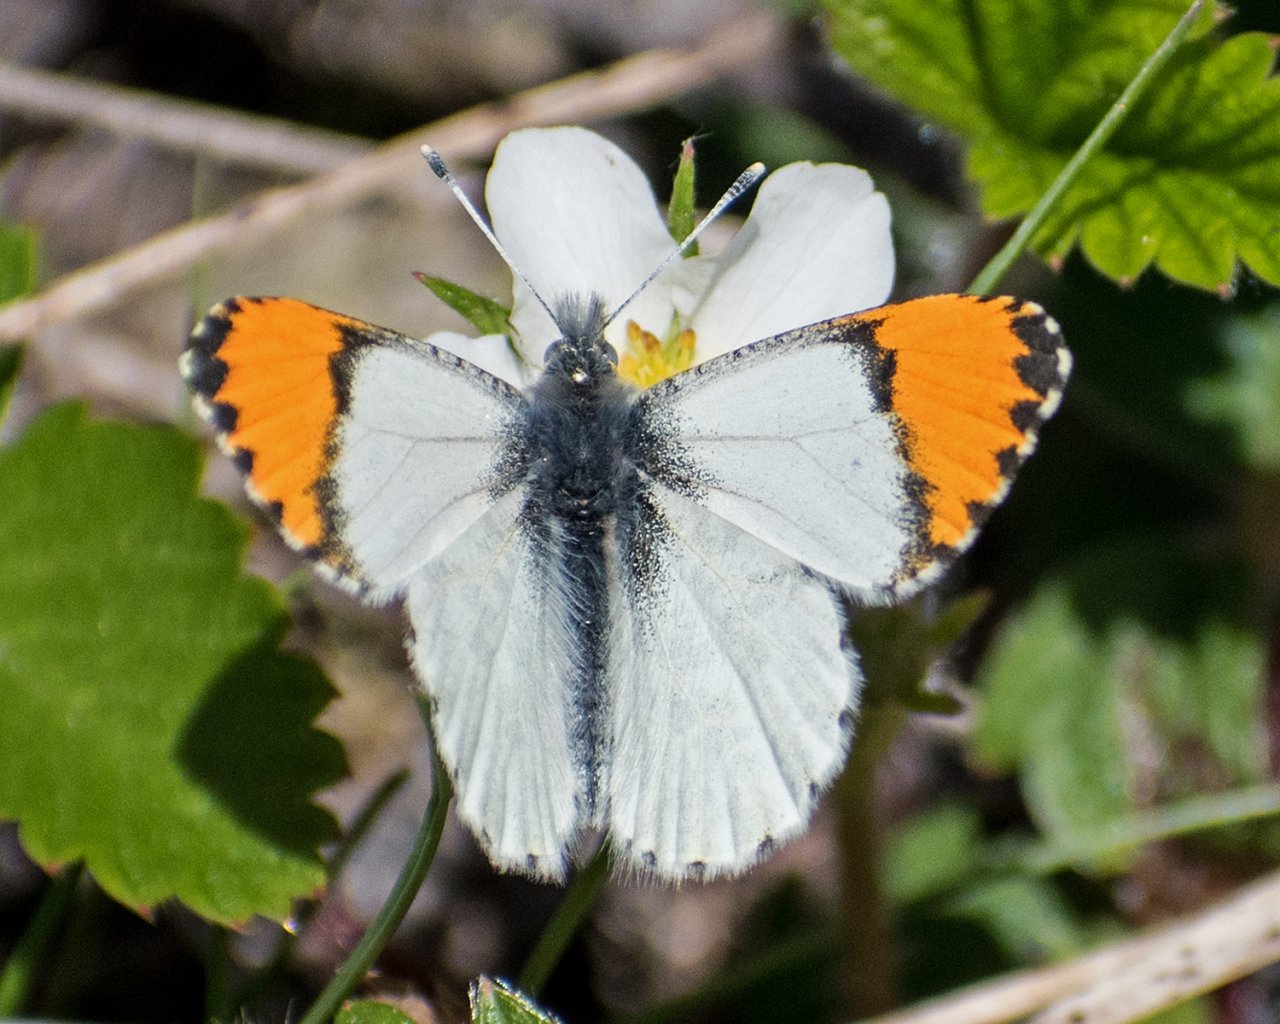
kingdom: Animalia
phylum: Arthropoda
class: Insecta
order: Lepidoptera
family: Pieridae
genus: Anthocharis
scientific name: Anthocharis sara
